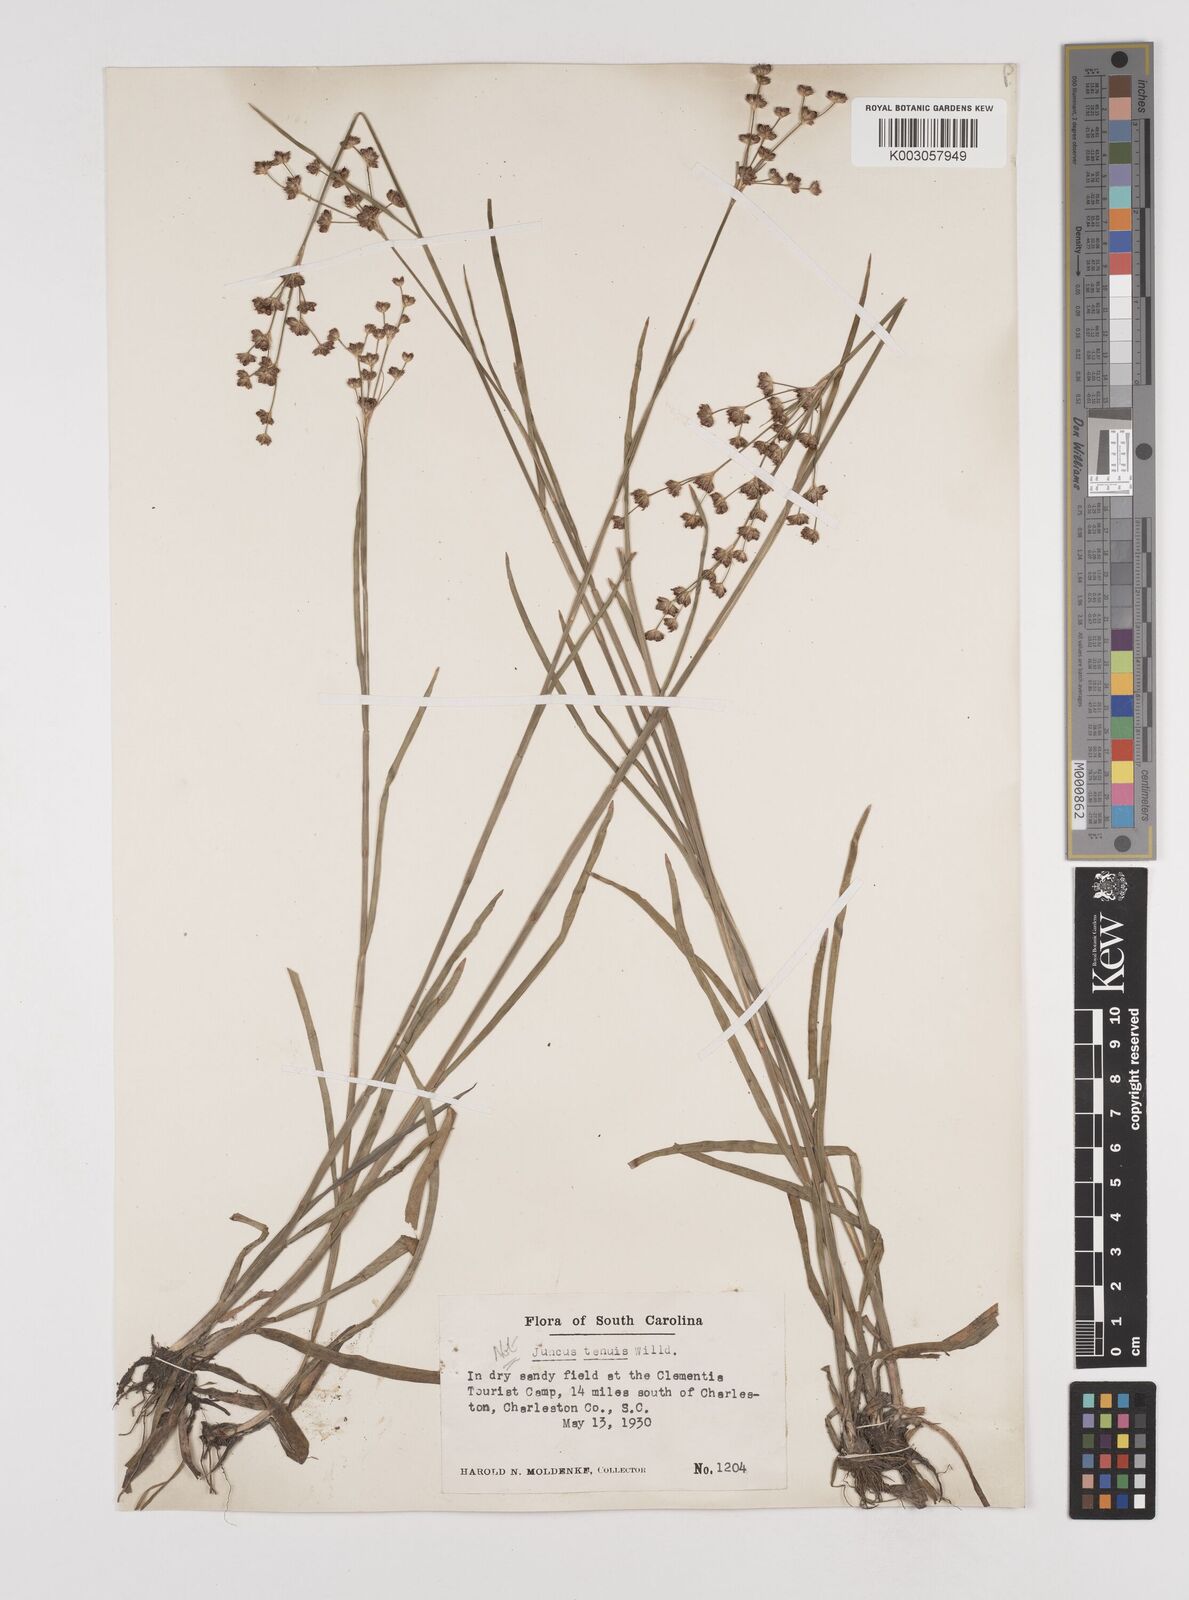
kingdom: Plantae
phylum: Tracheophyta
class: Liliopsida
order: Poales
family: Juncaceae
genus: Juncus
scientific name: Juncus marginatus
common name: Grass-leaf rush
